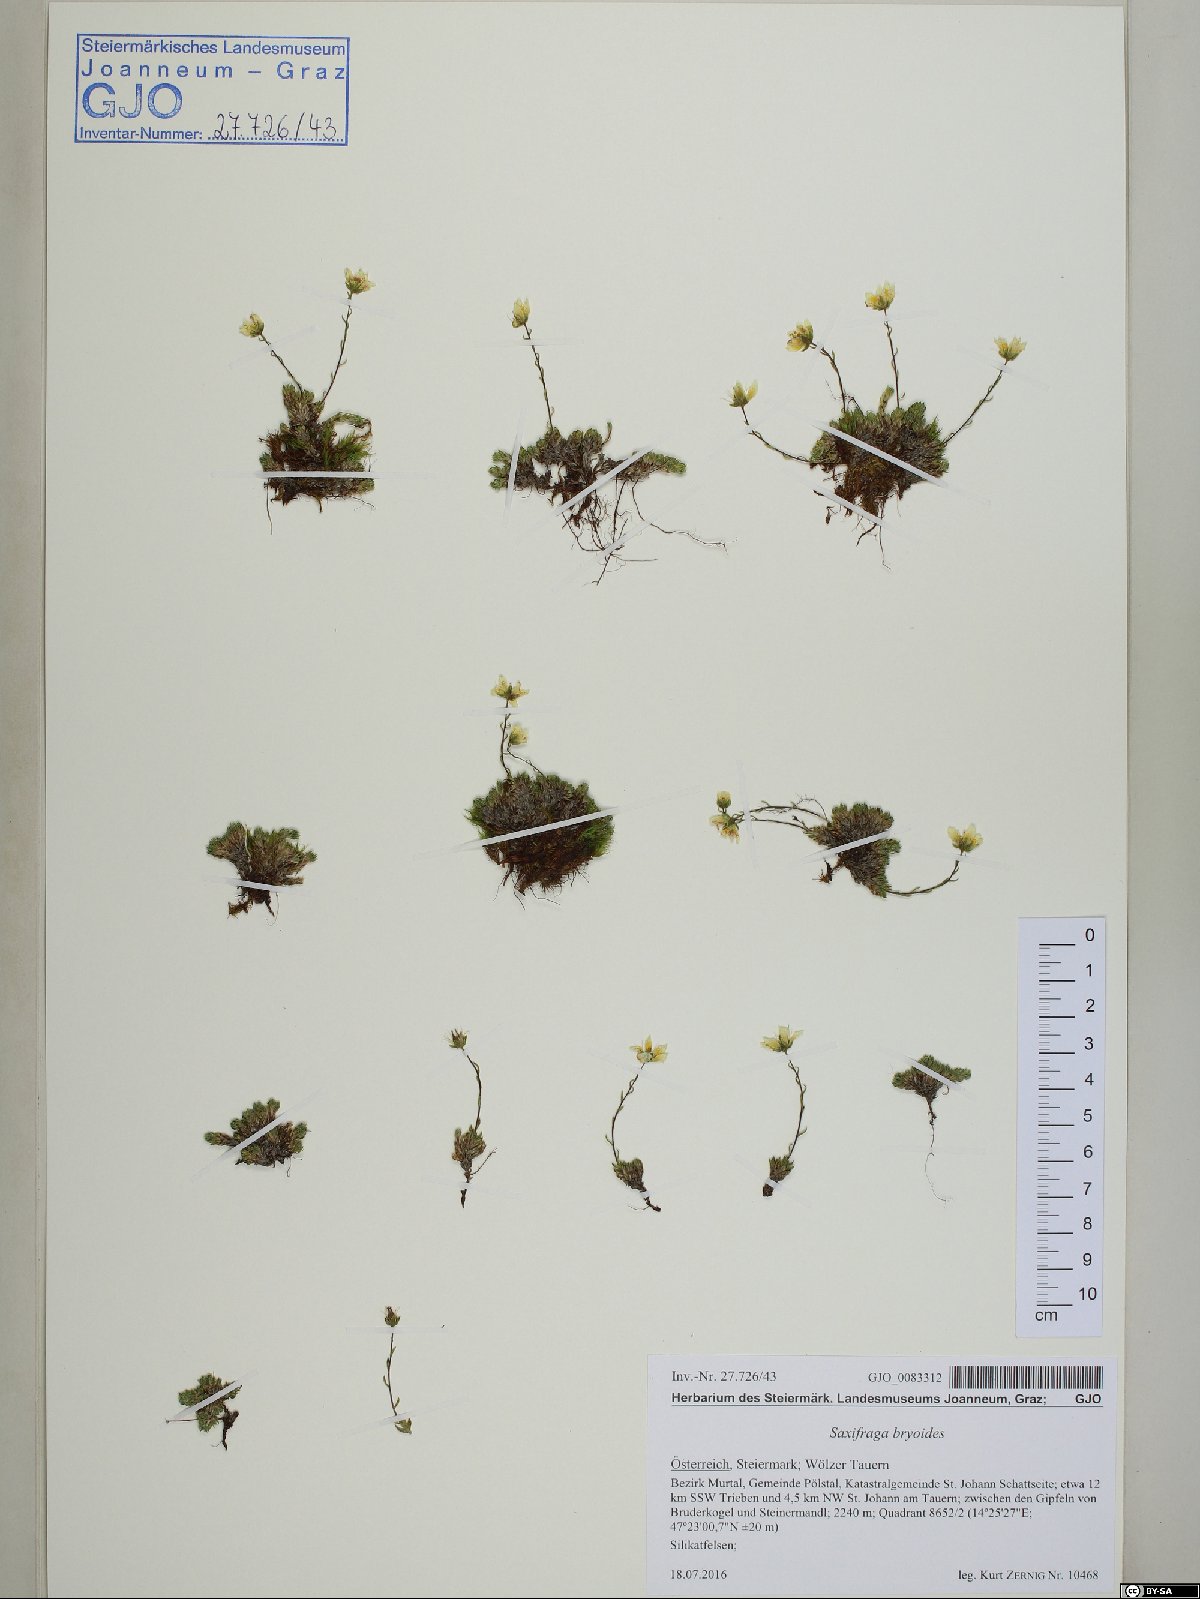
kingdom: Plantae
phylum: Tracheophyta
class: Magnoliopsida
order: Saxifragales
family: Saxifragaceae
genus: Saxifraga
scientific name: Saxifraga bryoides
